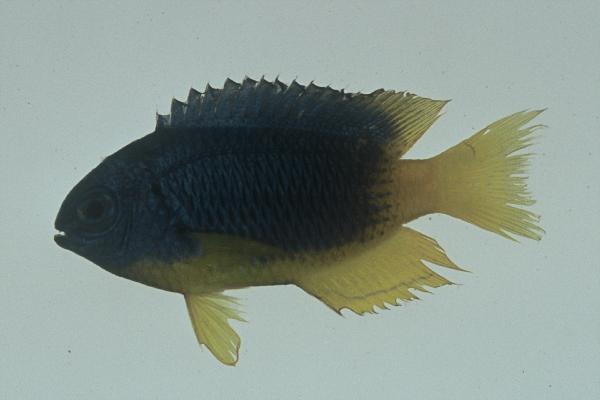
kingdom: Animalia
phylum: Chordata
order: Perciformes
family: Pomacentridae
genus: Pomacentrus
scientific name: Pomacentrus caeruleus
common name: Caerulean damsel
